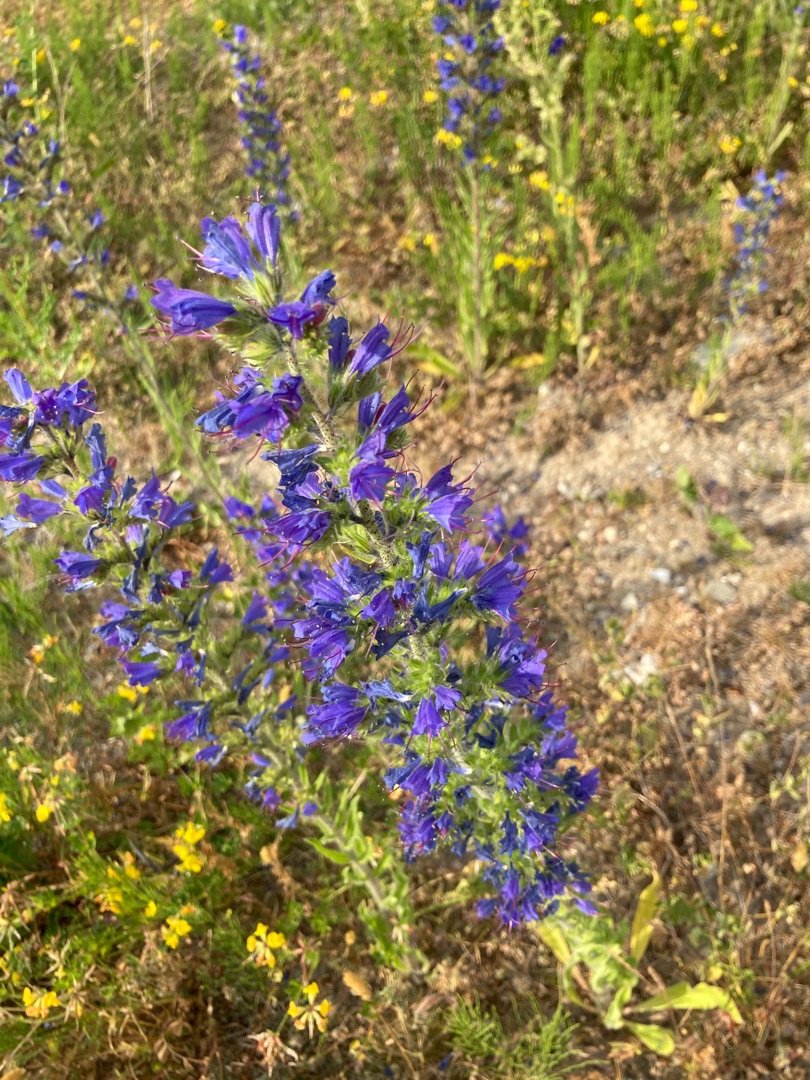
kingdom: Plantae
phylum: Tracheophyta
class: Magnoliopsida
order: Boraginales
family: Boraginaceae
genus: Echium
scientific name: Echium vulgare
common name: Slangehoved
